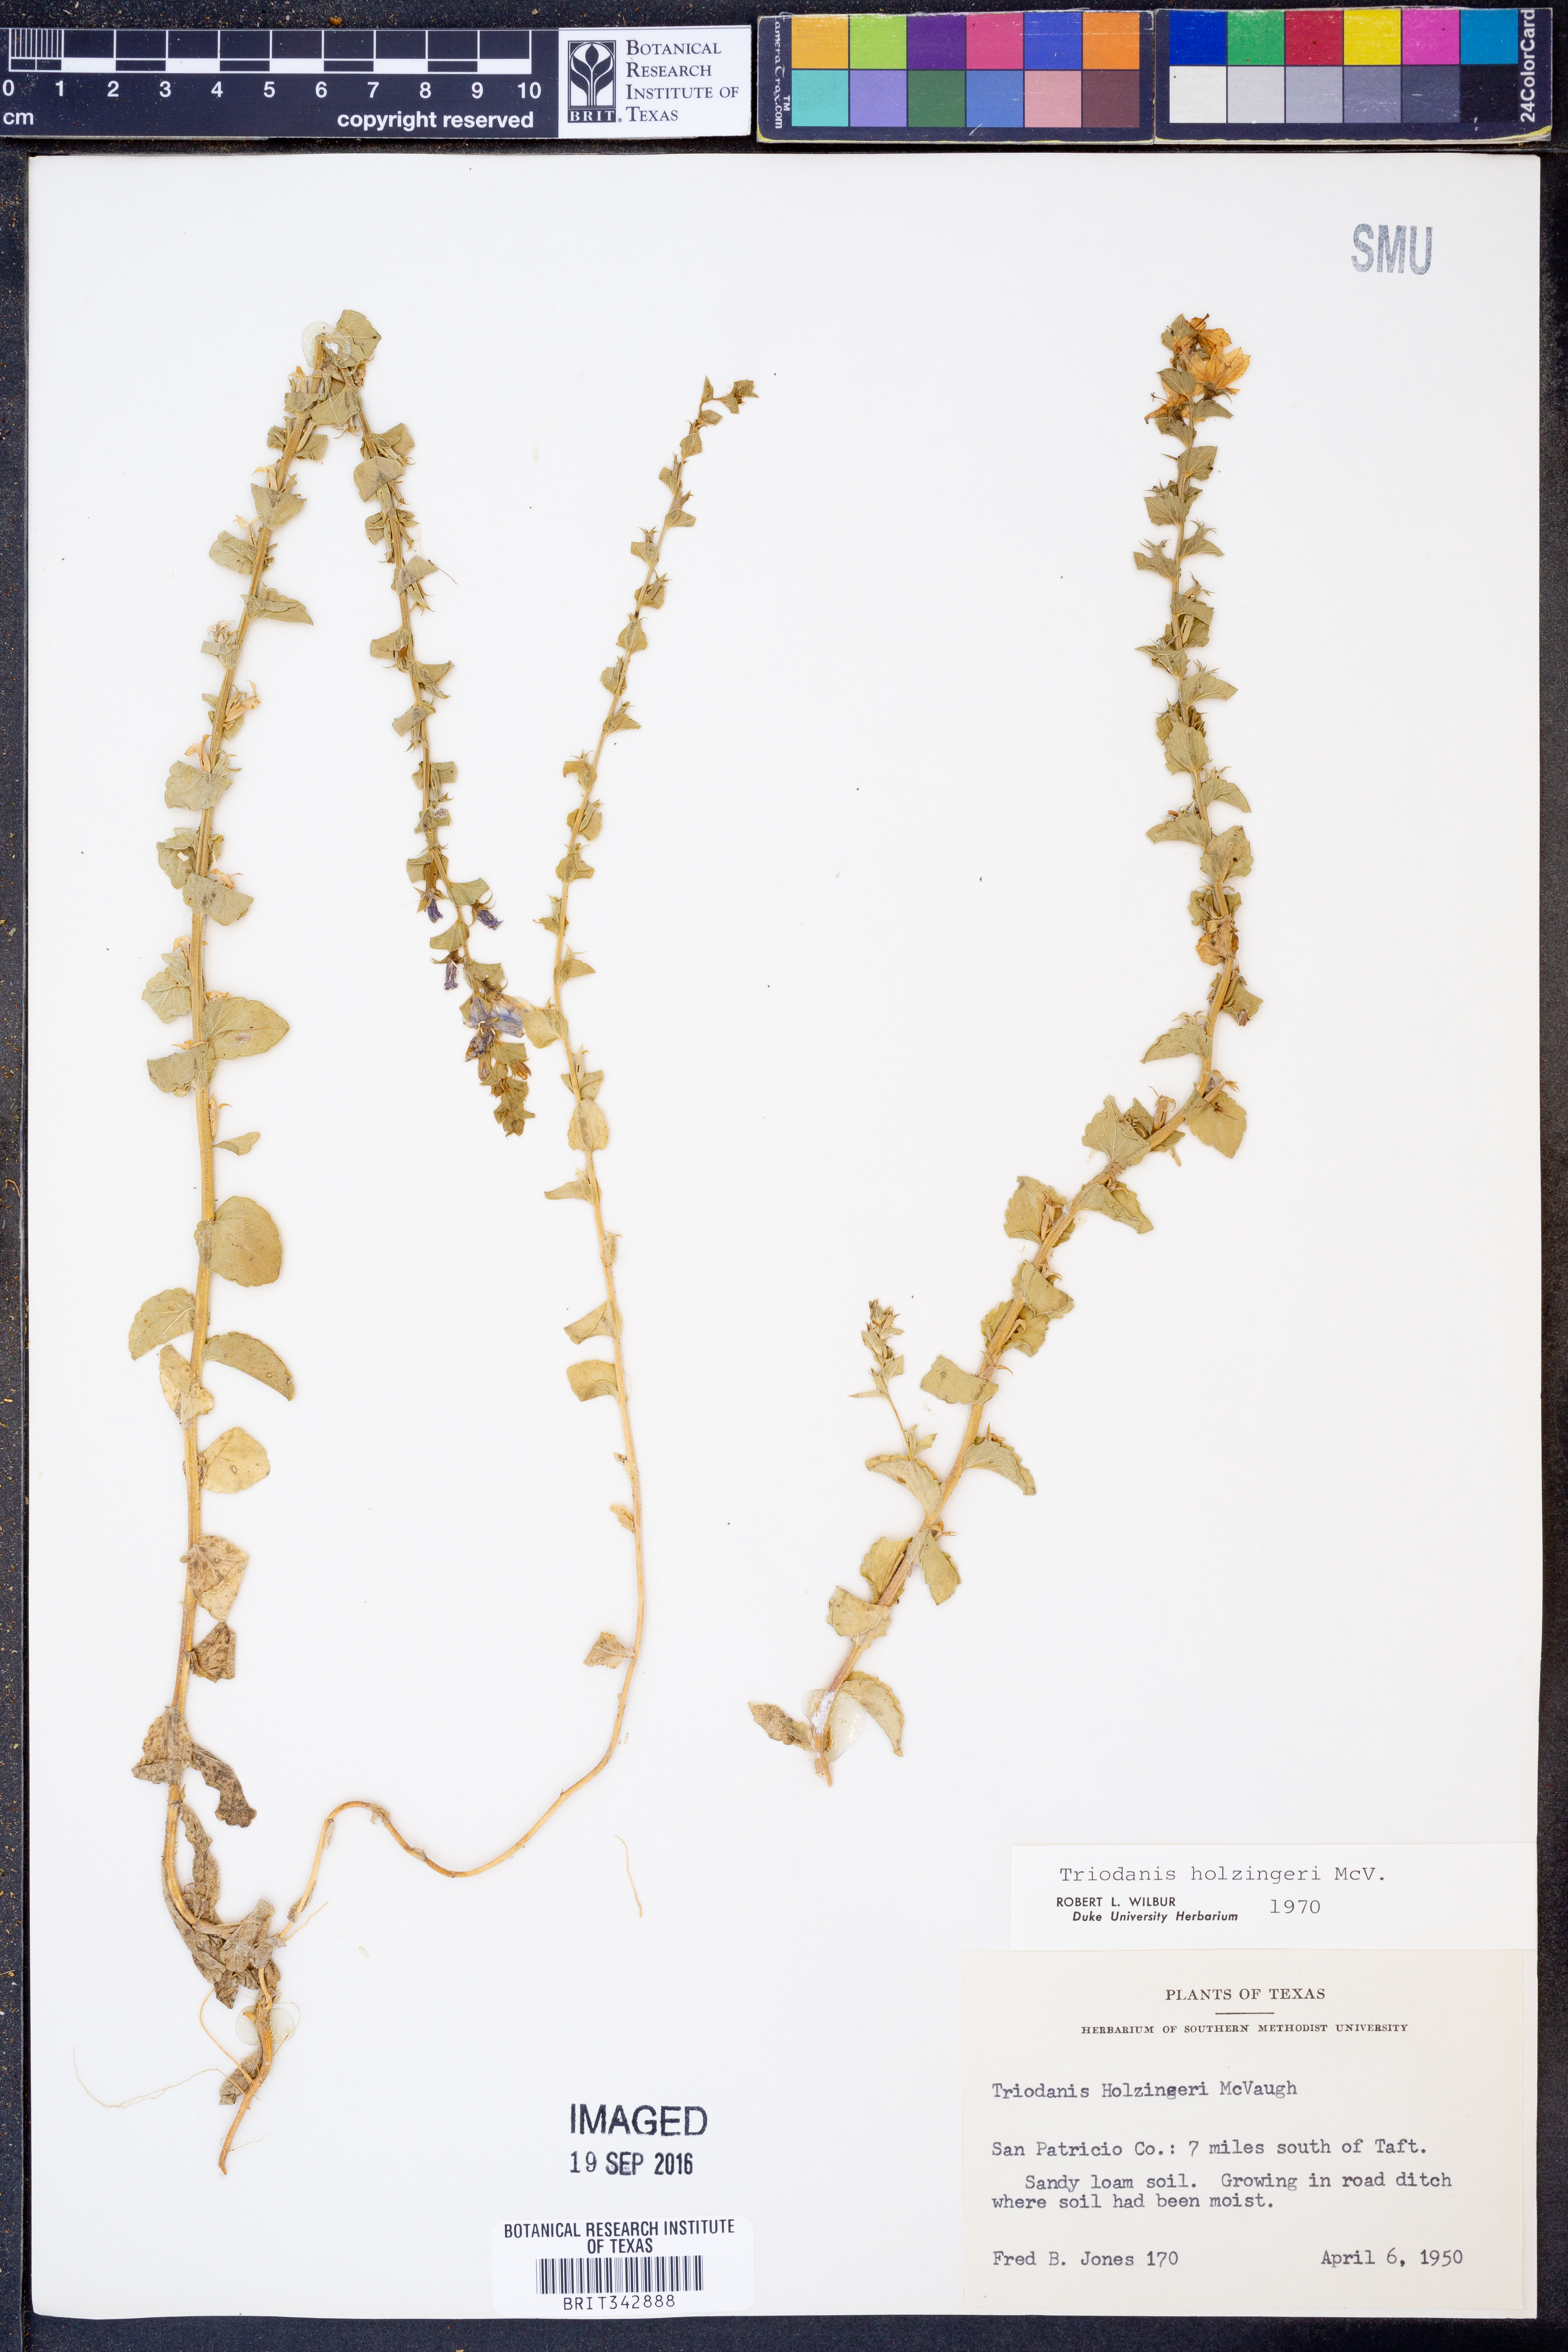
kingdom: Plantae
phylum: Tracheophyta
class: Magnoliopsida
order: Asterales
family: Campanulaceae
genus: Triodanis
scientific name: Triodanis holzingeri
